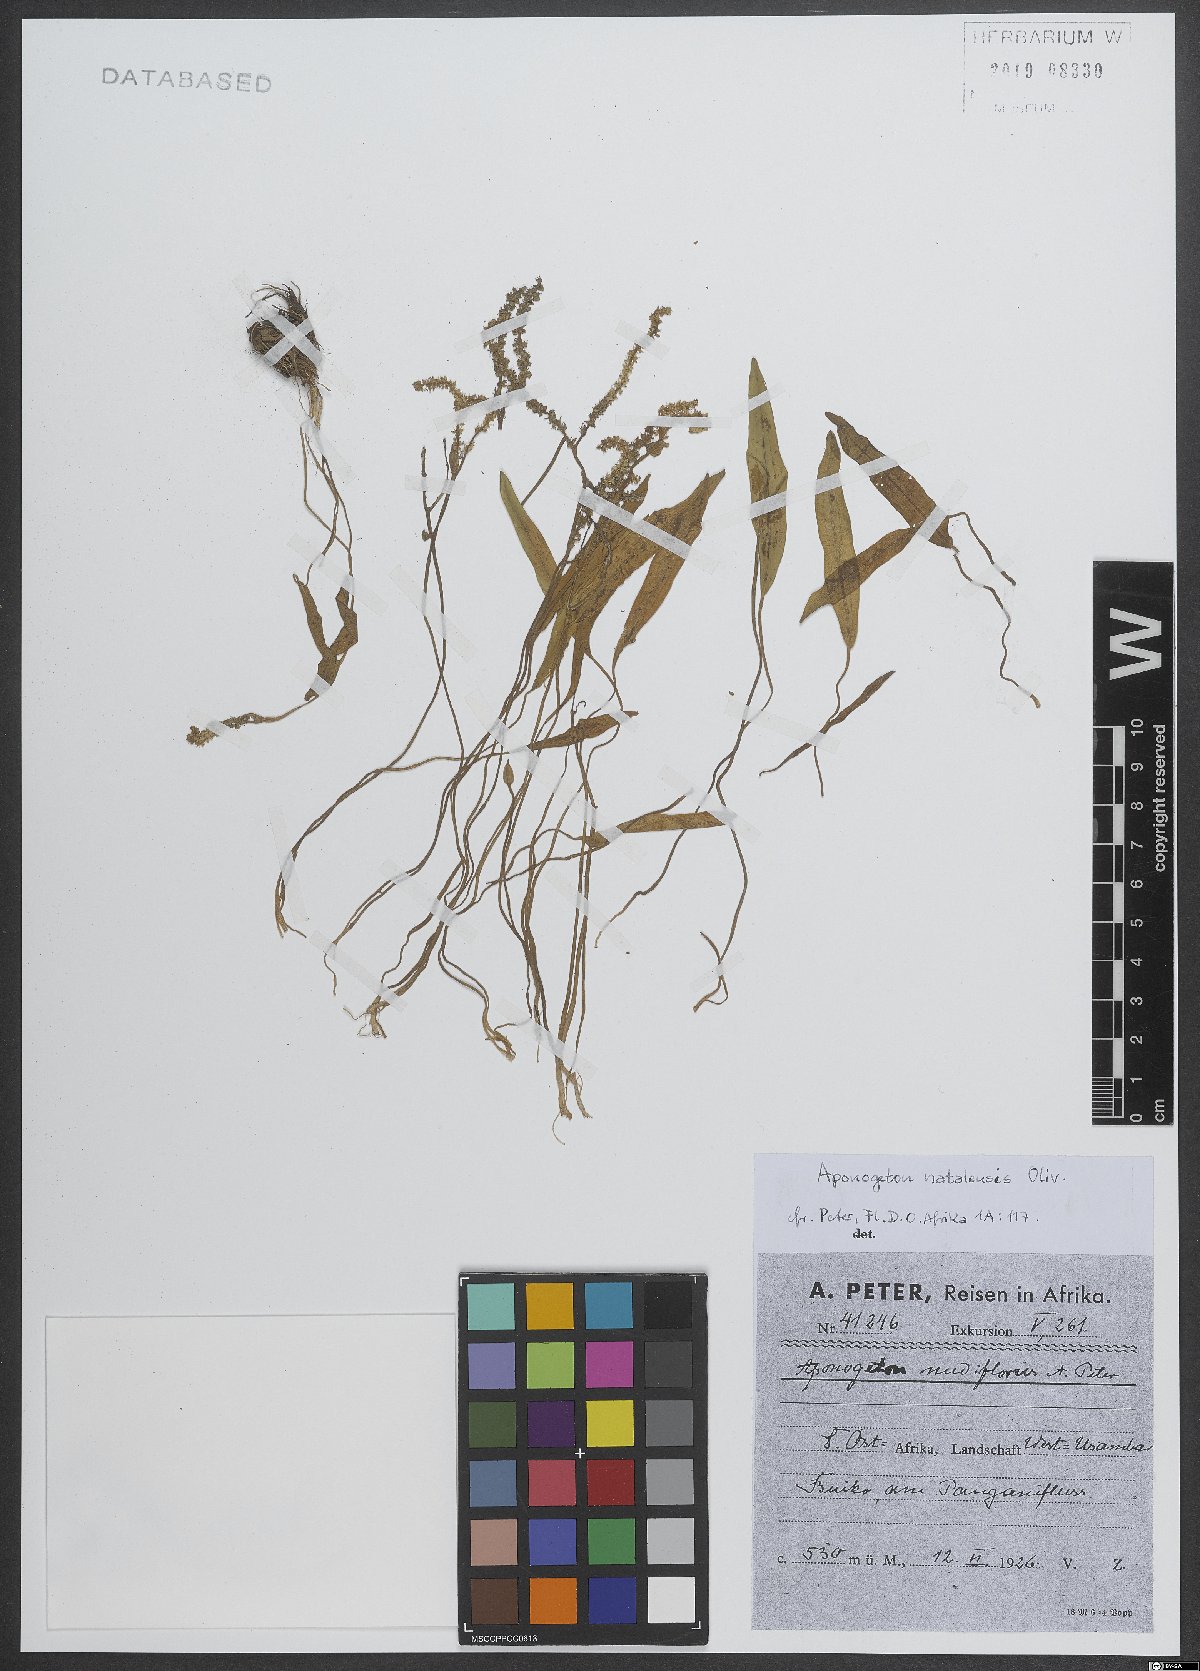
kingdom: Plantae
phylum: Tracheophyta
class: Liliopsida
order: Alismatales
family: Aponogetonaceae
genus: Aponogeton
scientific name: Aponogeton natalensis
